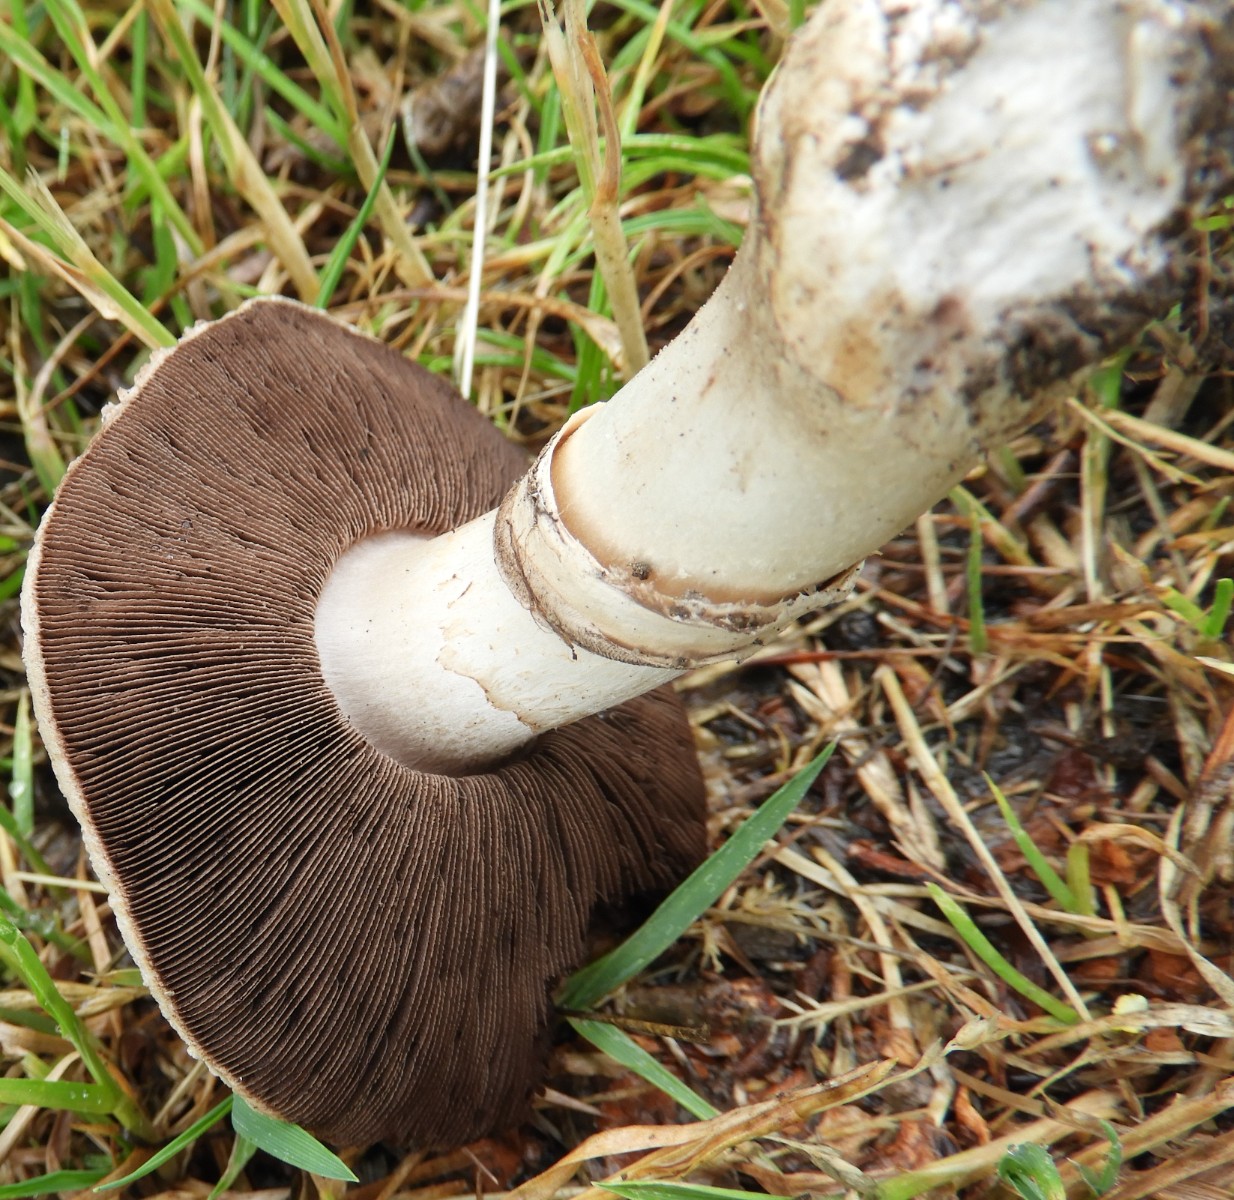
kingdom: Fungi
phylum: Basidiomycota
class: Agaricomycetes
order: Agaricales
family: Agaricaceae
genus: Agaricus
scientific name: Agaricus bitorquis
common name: vej-champignon
